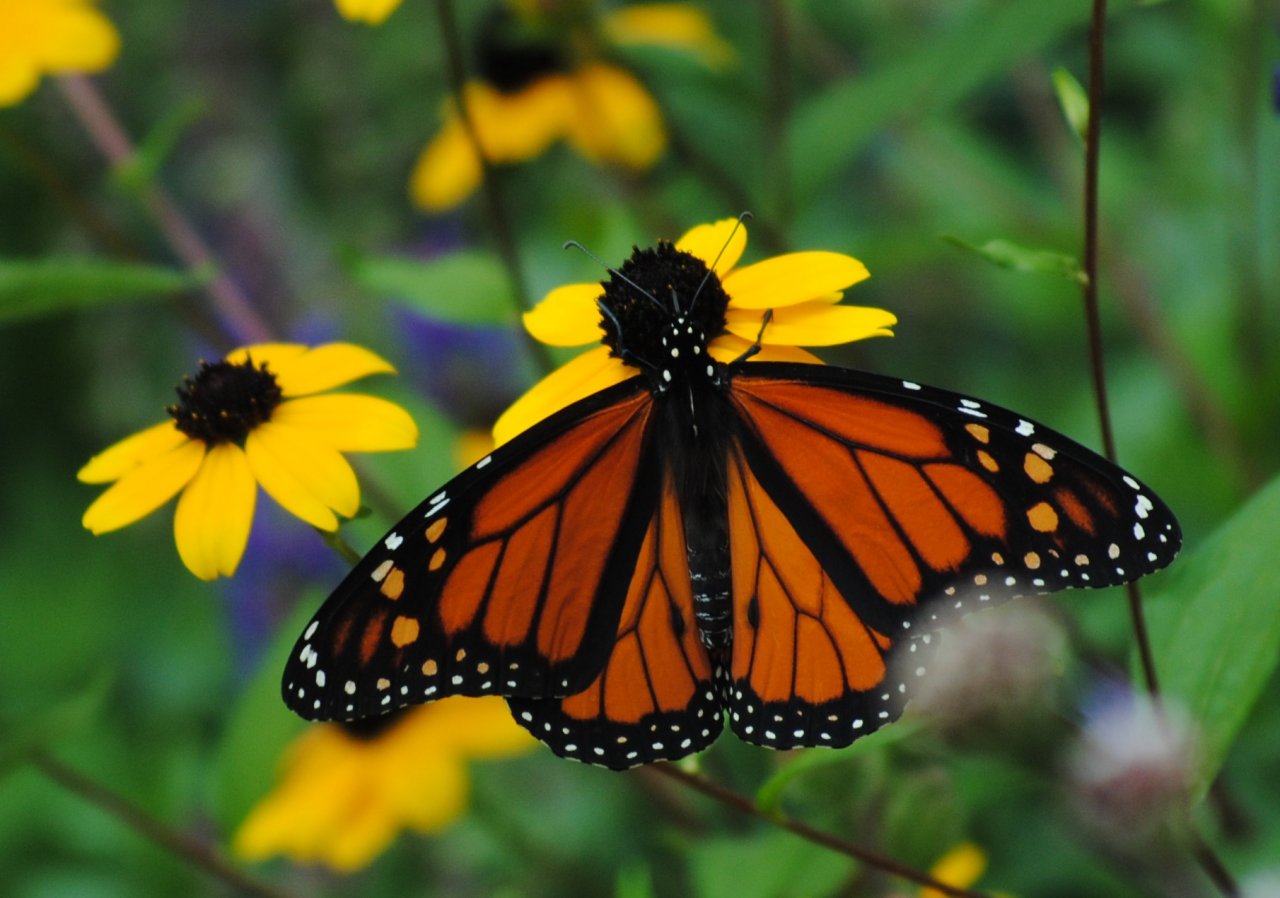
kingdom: Animalia
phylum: Arthropoda
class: Insecta
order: Lepidoptera
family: Nymphalidae
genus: Danaus
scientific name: Danaus plexippus
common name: Monarch
